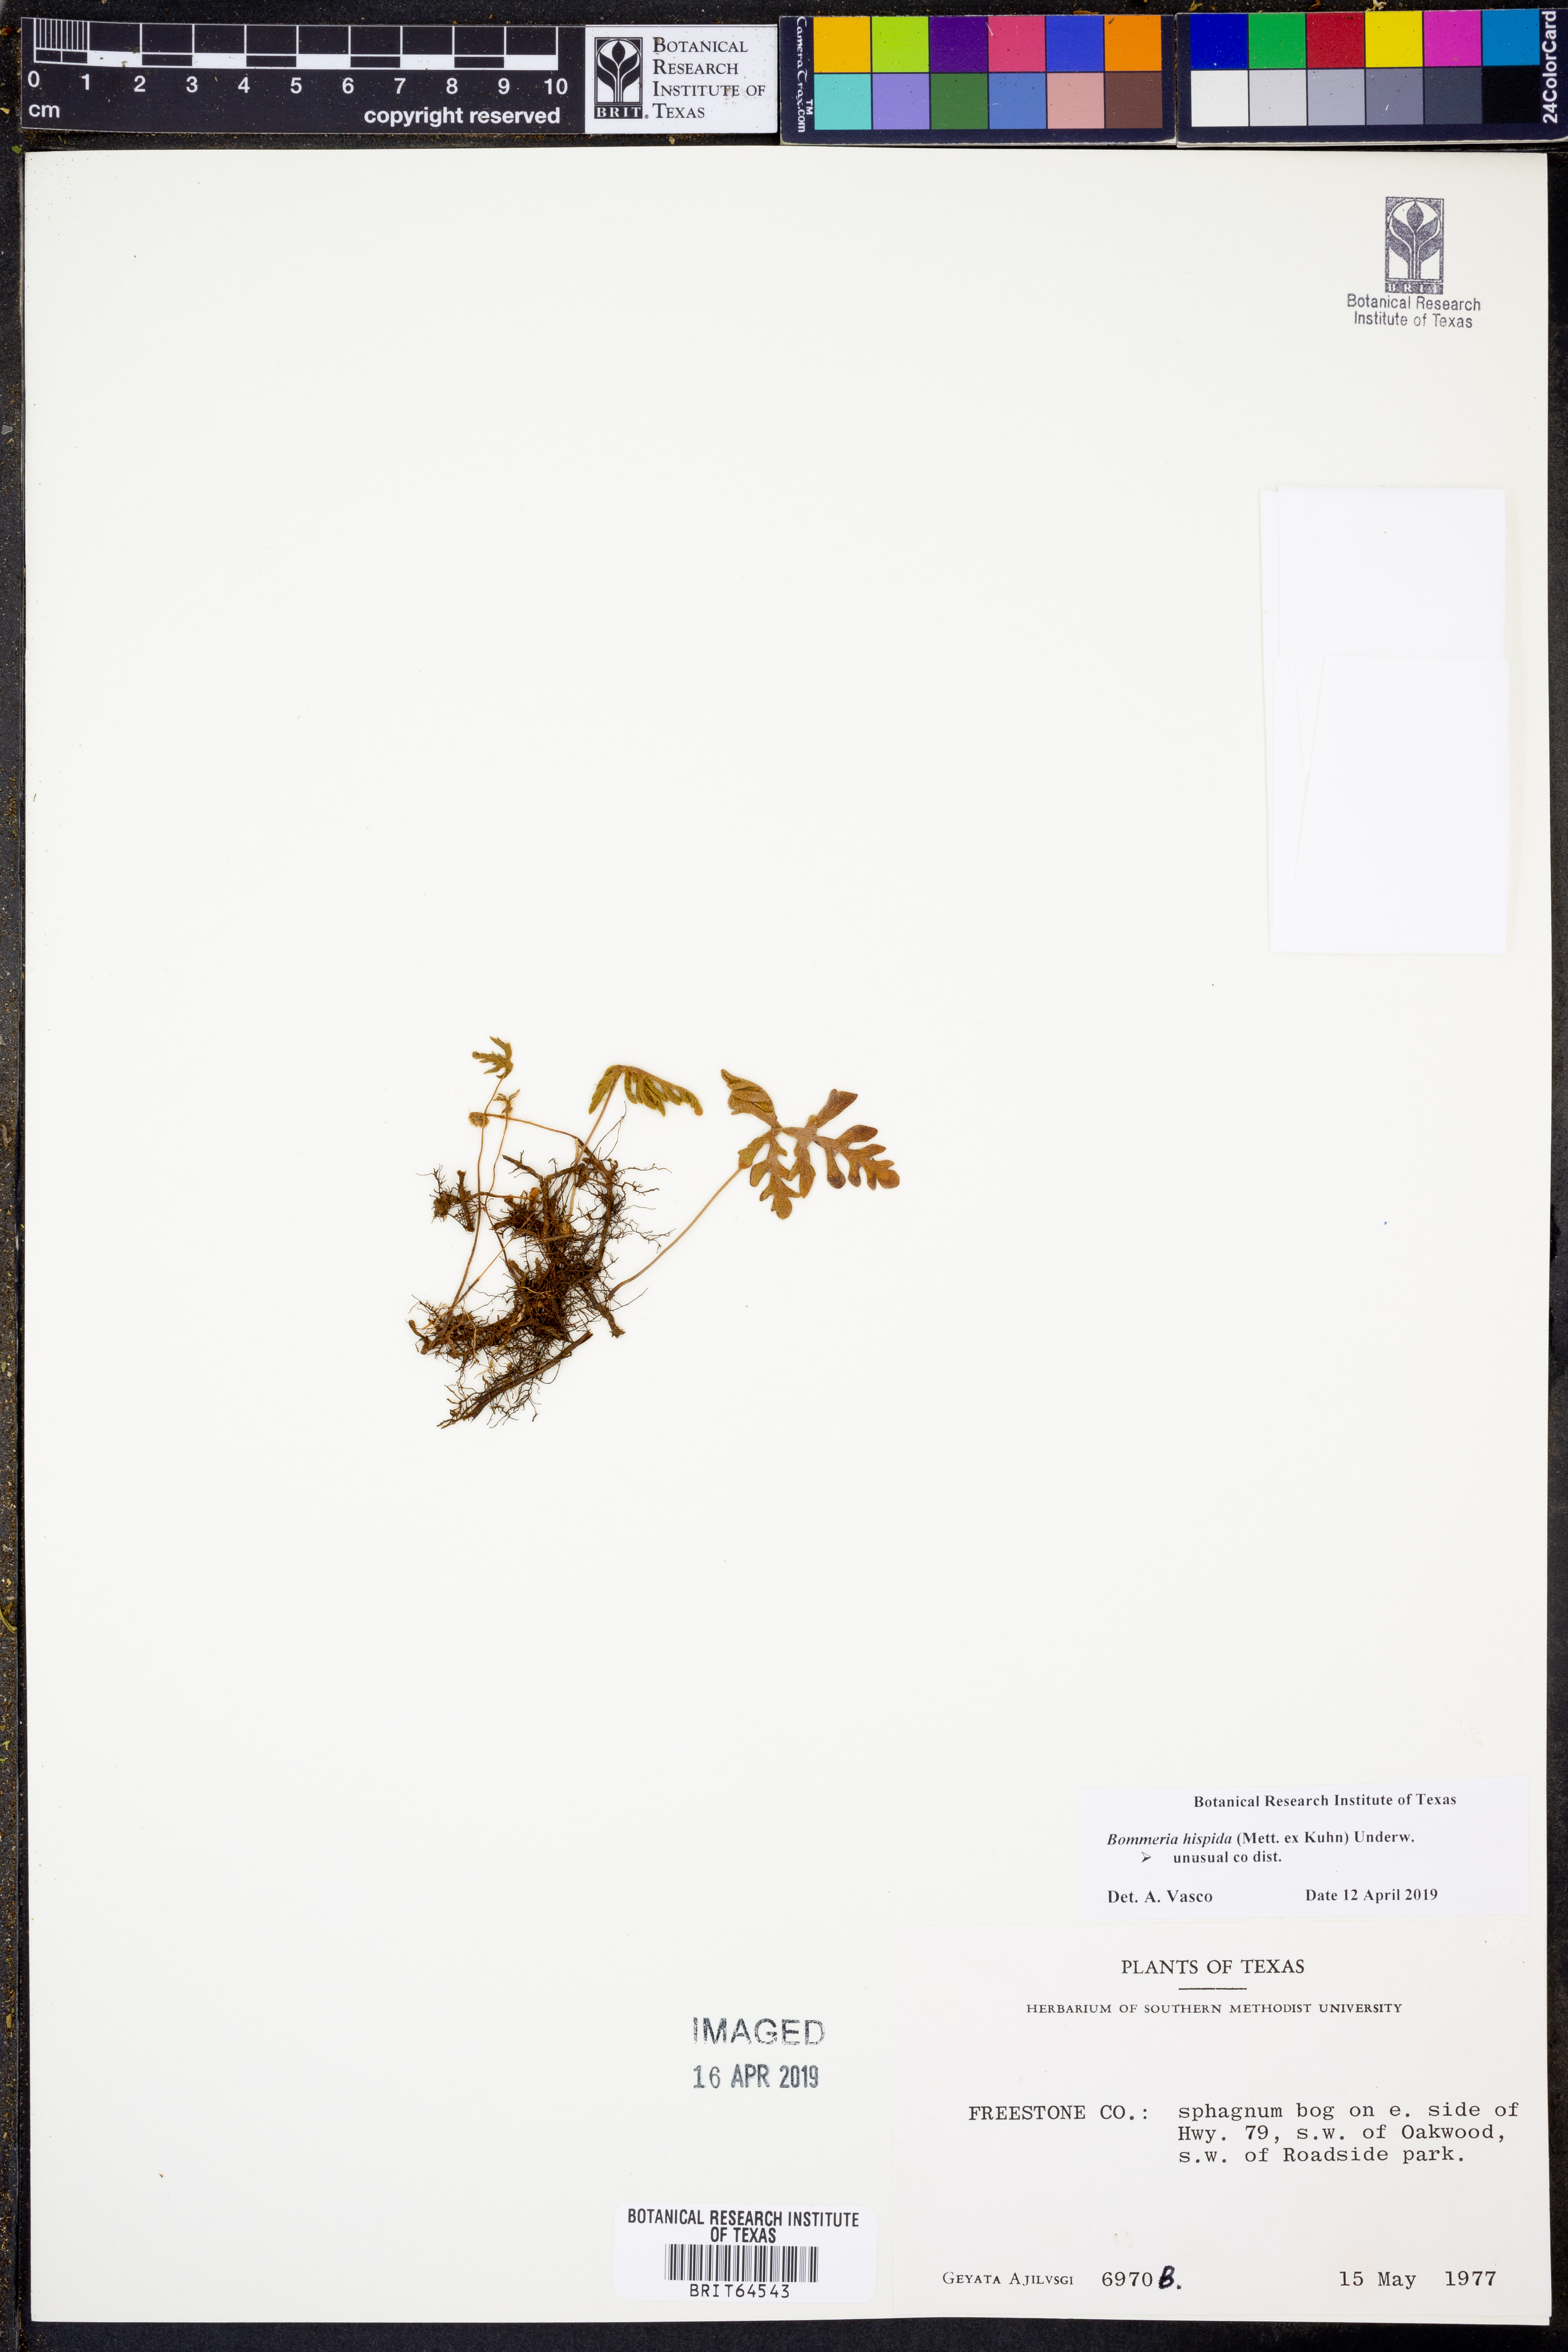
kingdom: Plantae
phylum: Tracheophyta
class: Polypodiopsida
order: Polypodiales
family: Pteridaceae
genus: Bommeria
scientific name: Bommeria hispida
